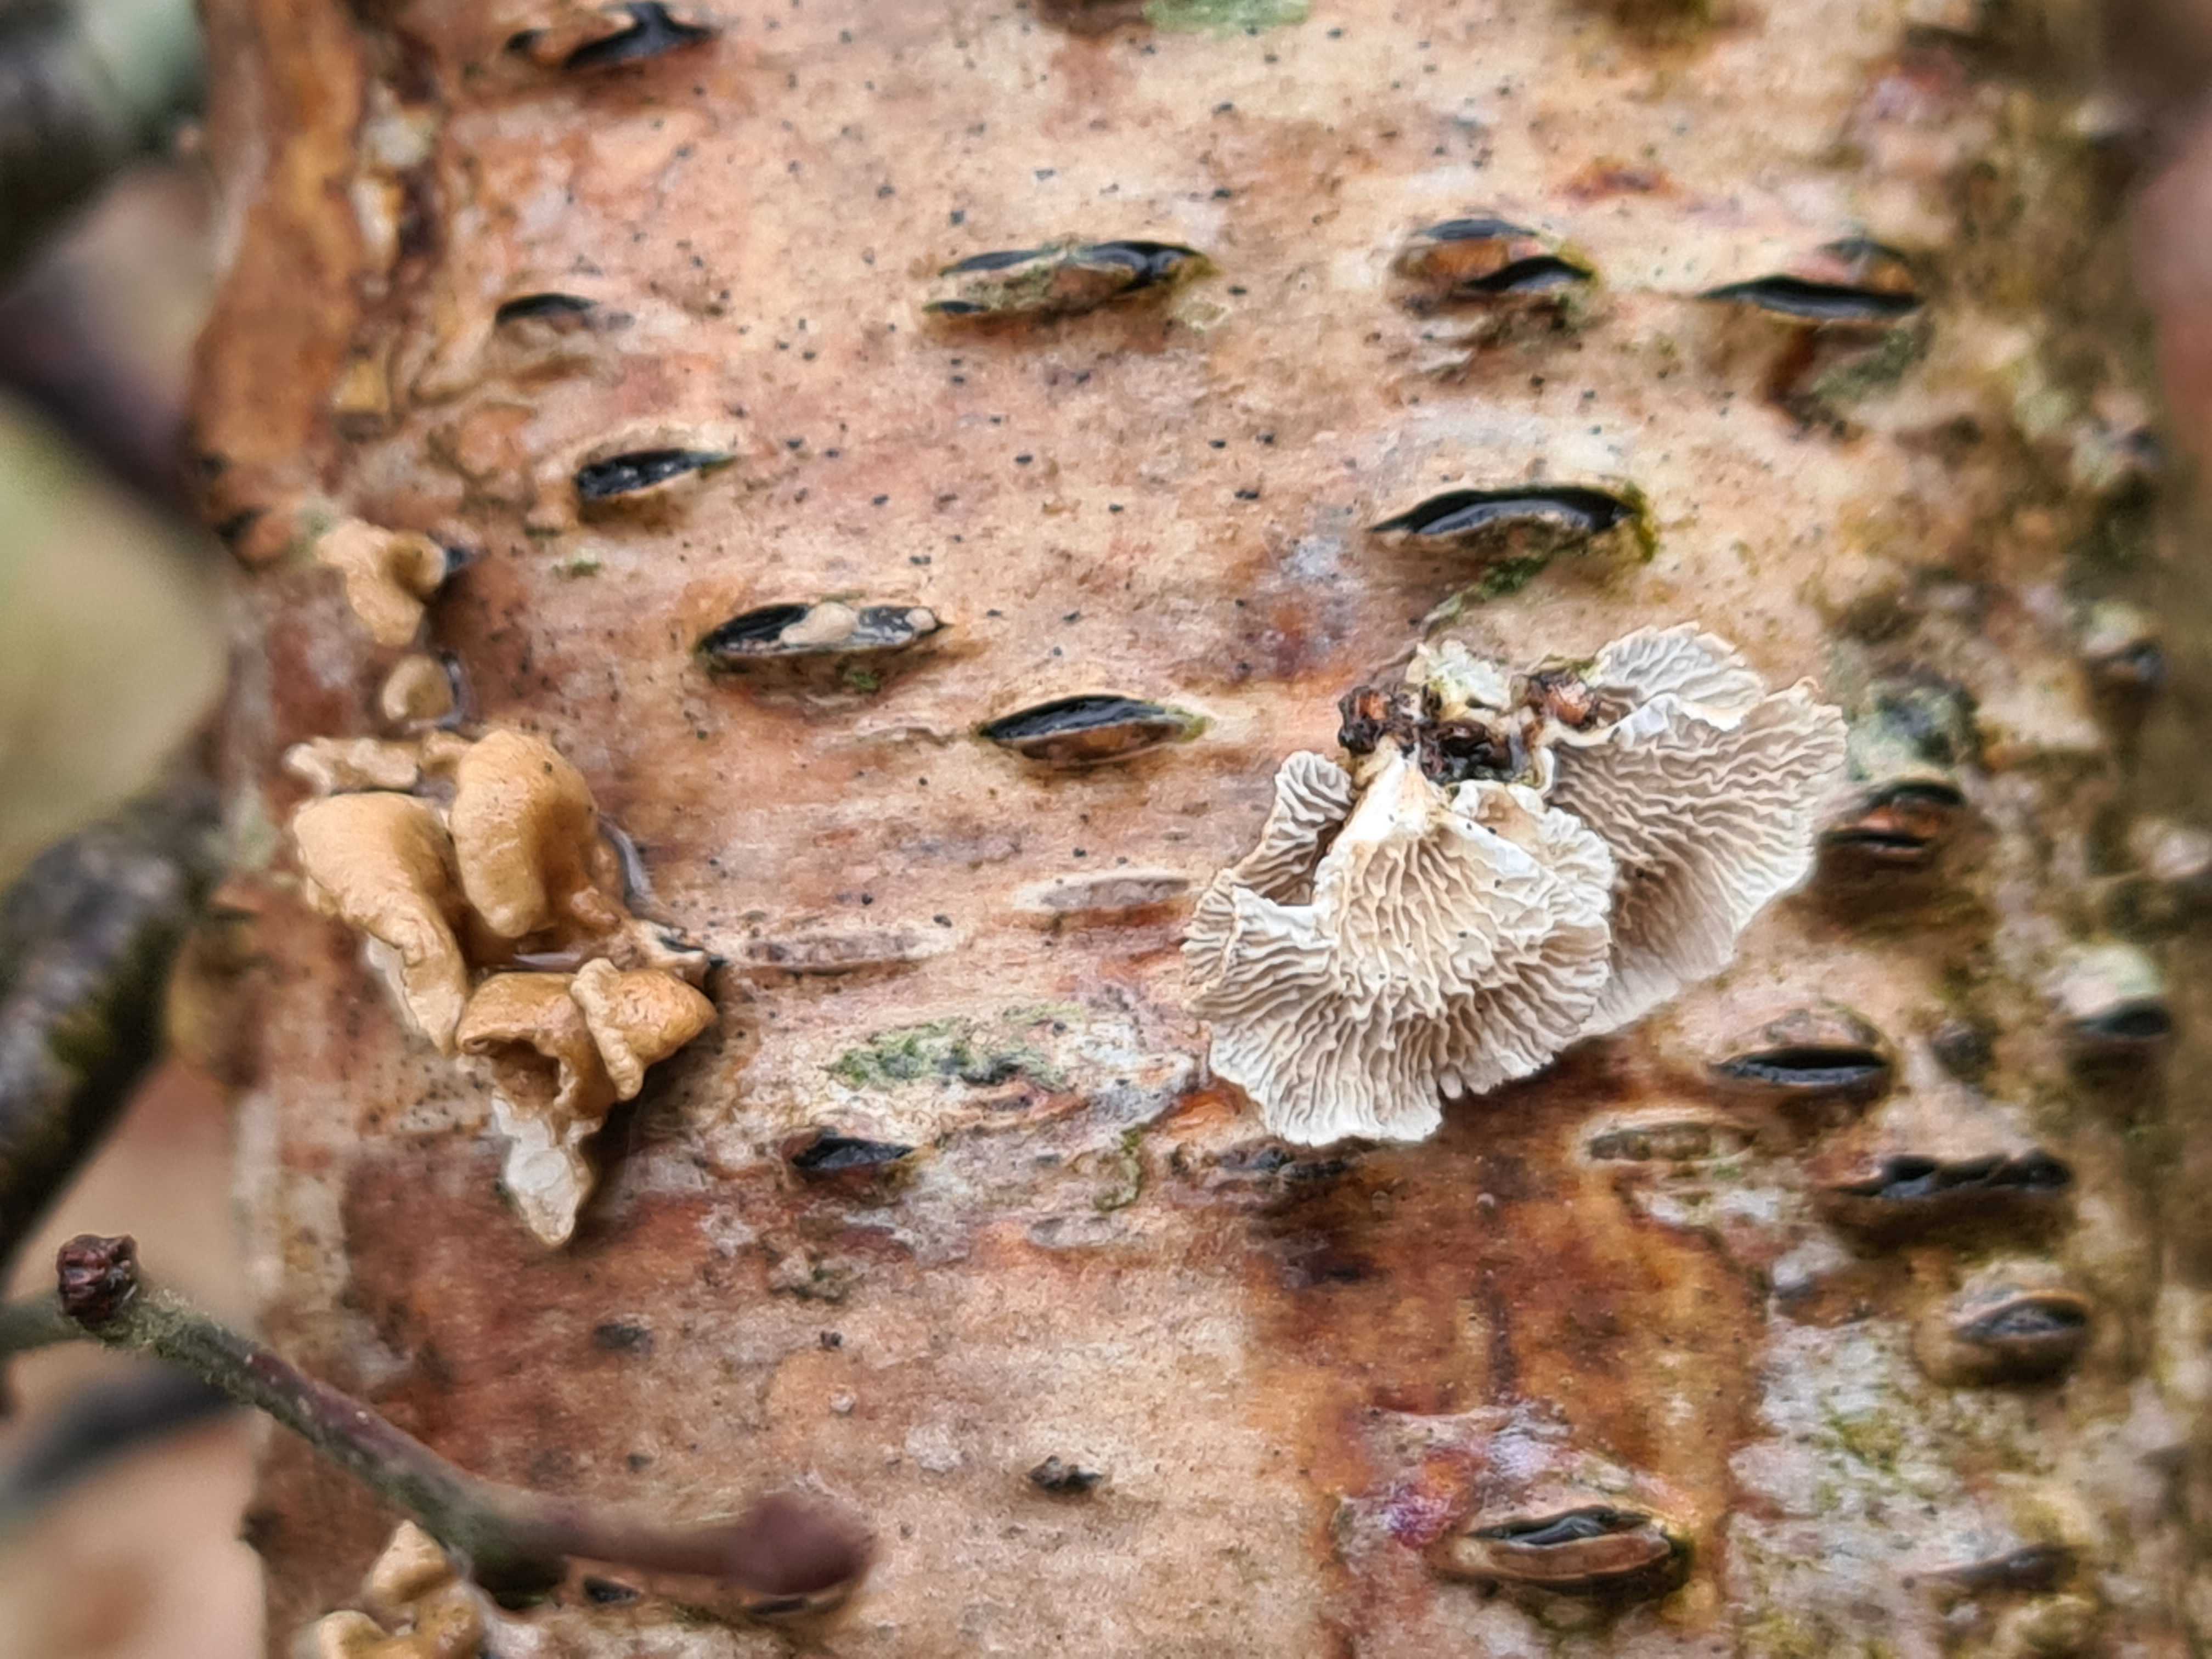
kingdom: Fungi
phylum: Basidiomycota
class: Agaricomycetes
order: Amylocorticiales
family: Amylocorticiaceae
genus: Plicaturopsis
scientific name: Plicaturopsis crispa
